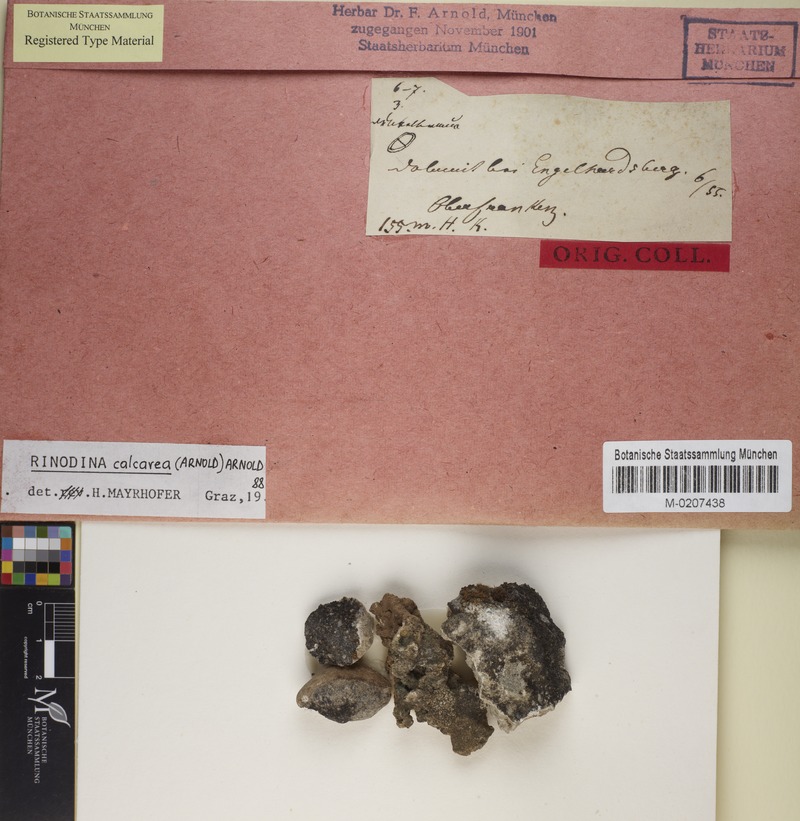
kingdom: Fungi
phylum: Ascomycota
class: Lecanoromycetes
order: Caliciales
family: Physciaceae
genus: Rinodina
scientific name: Rinodina calcarea
